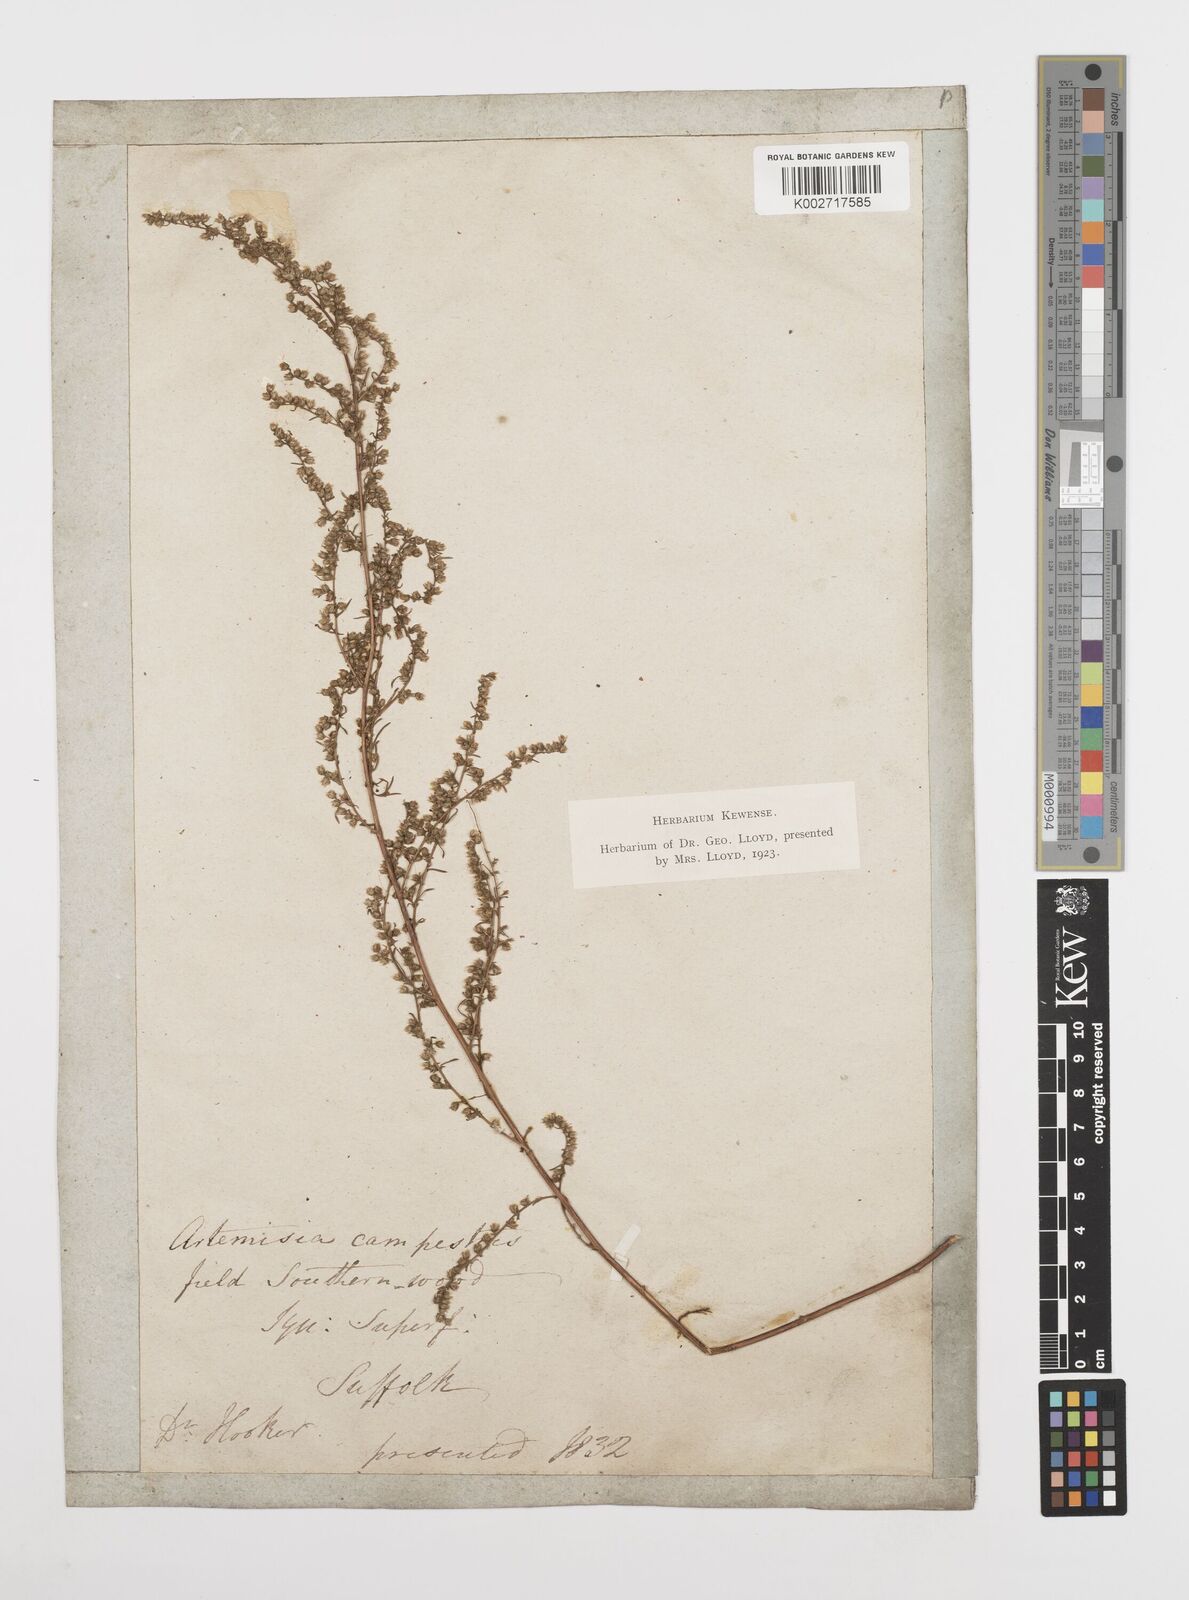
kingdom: Plantae
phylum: Tracheophyta
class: Magnoliopsida
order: Asterales
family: Asteraceae
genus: Artemisia
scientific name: Artemisia campestris
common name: Field wormwood
